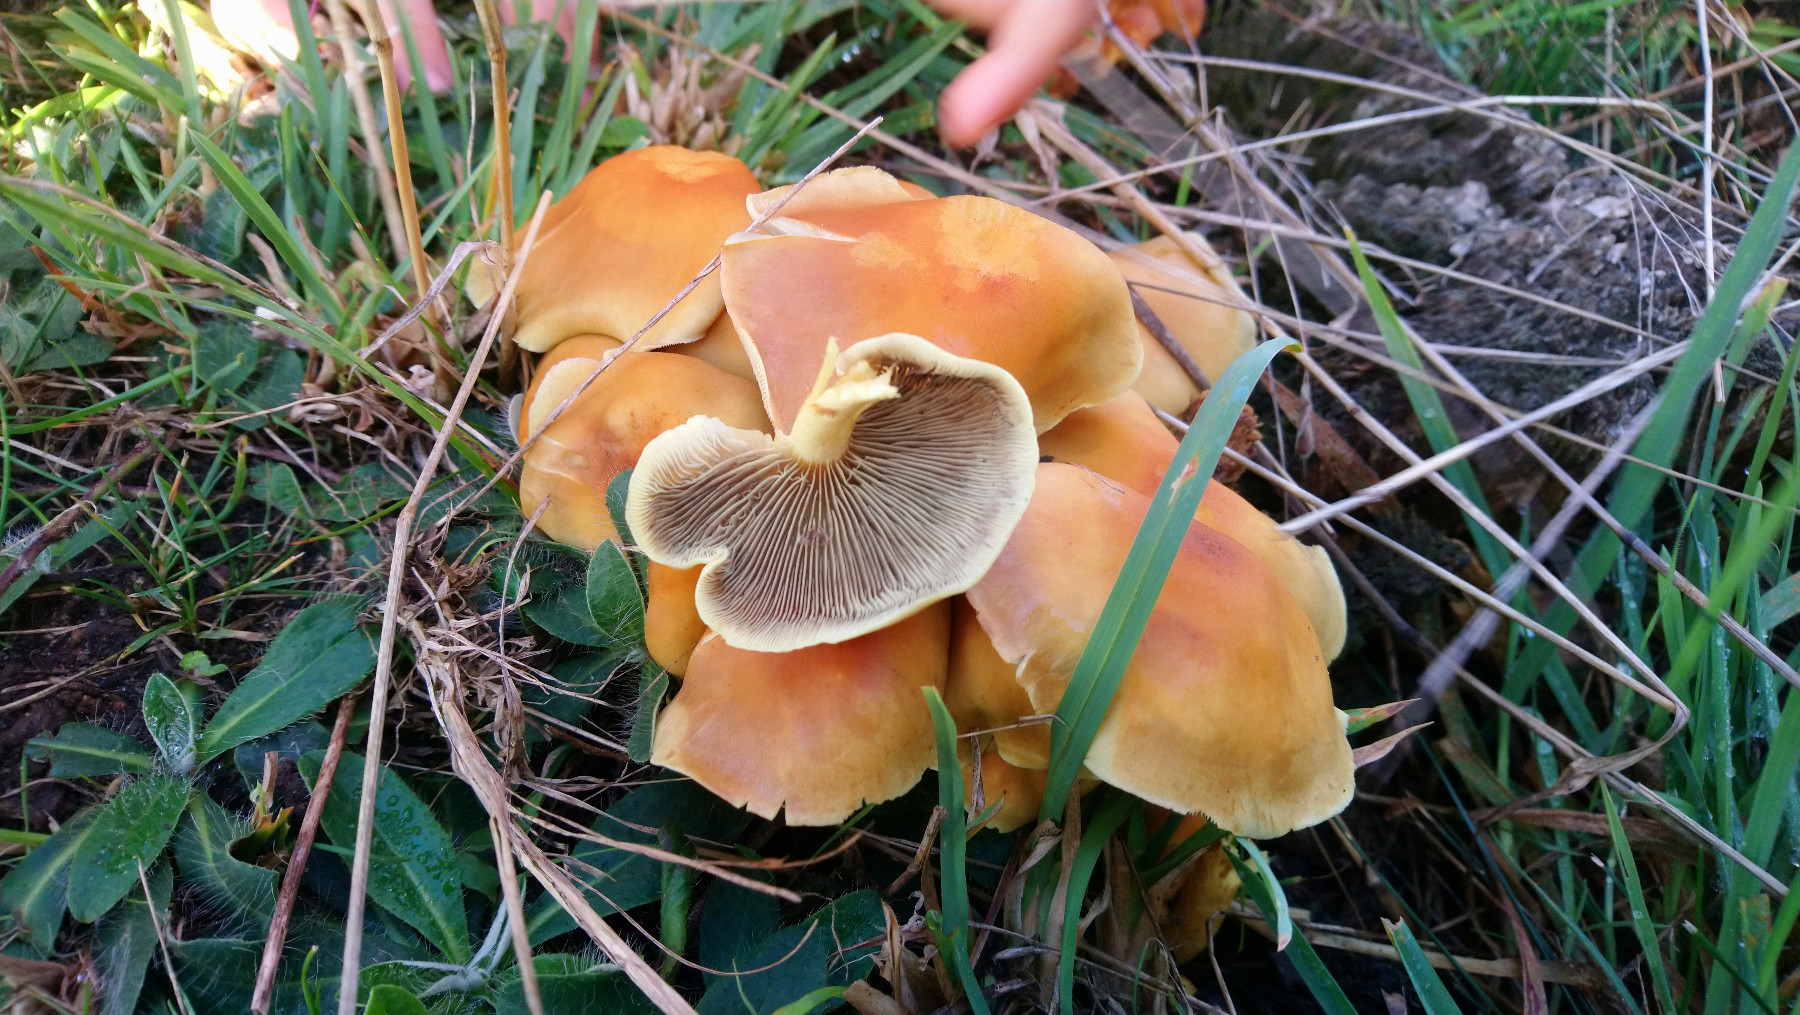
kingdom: Fungi
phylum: Basidiomycota
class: Agaricomycetes
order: Agaricales
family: Strophariaceae
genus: Hypholoma
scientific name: Hypholoma capnoides
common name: gran-svovlhat
